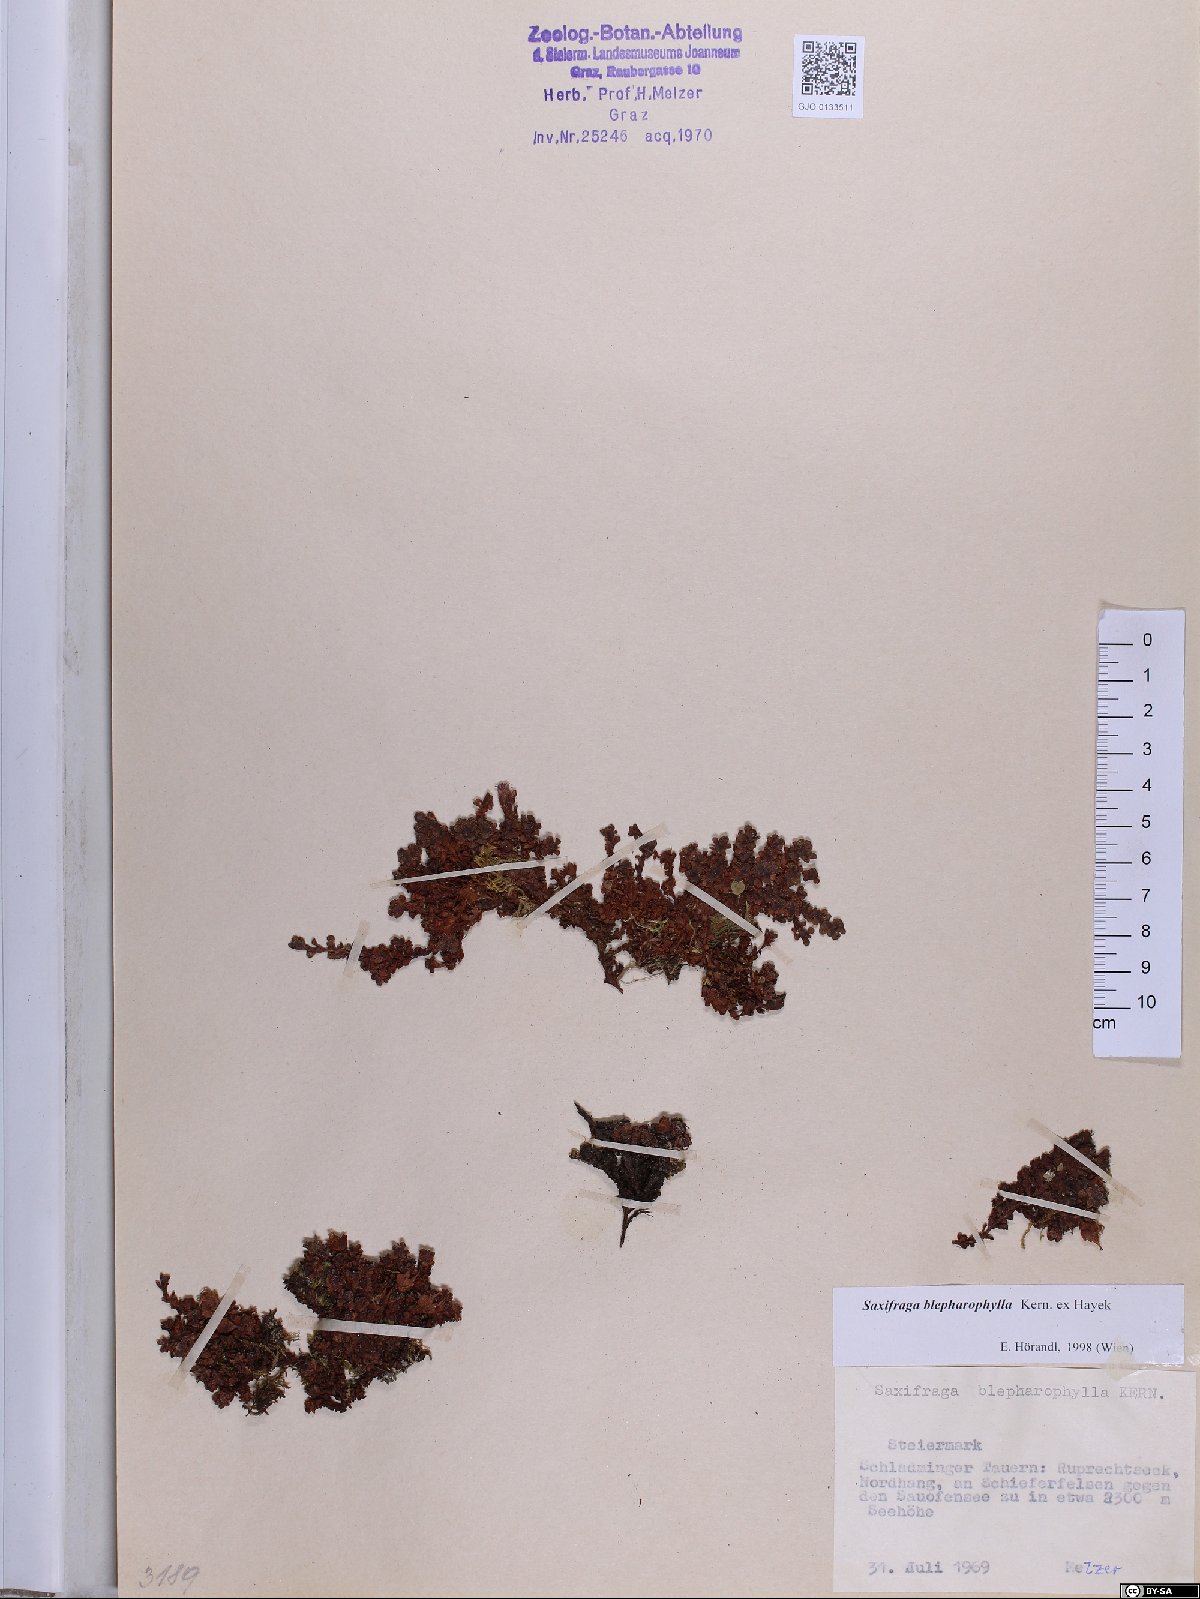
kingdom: Plantae
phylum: Tracheophyta
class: Magnoliopsida
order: Saxifragales
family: Saxifragaceae
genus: Saxifraga
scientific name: Saxifraga oppositifolia
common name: Purple saxifrage
